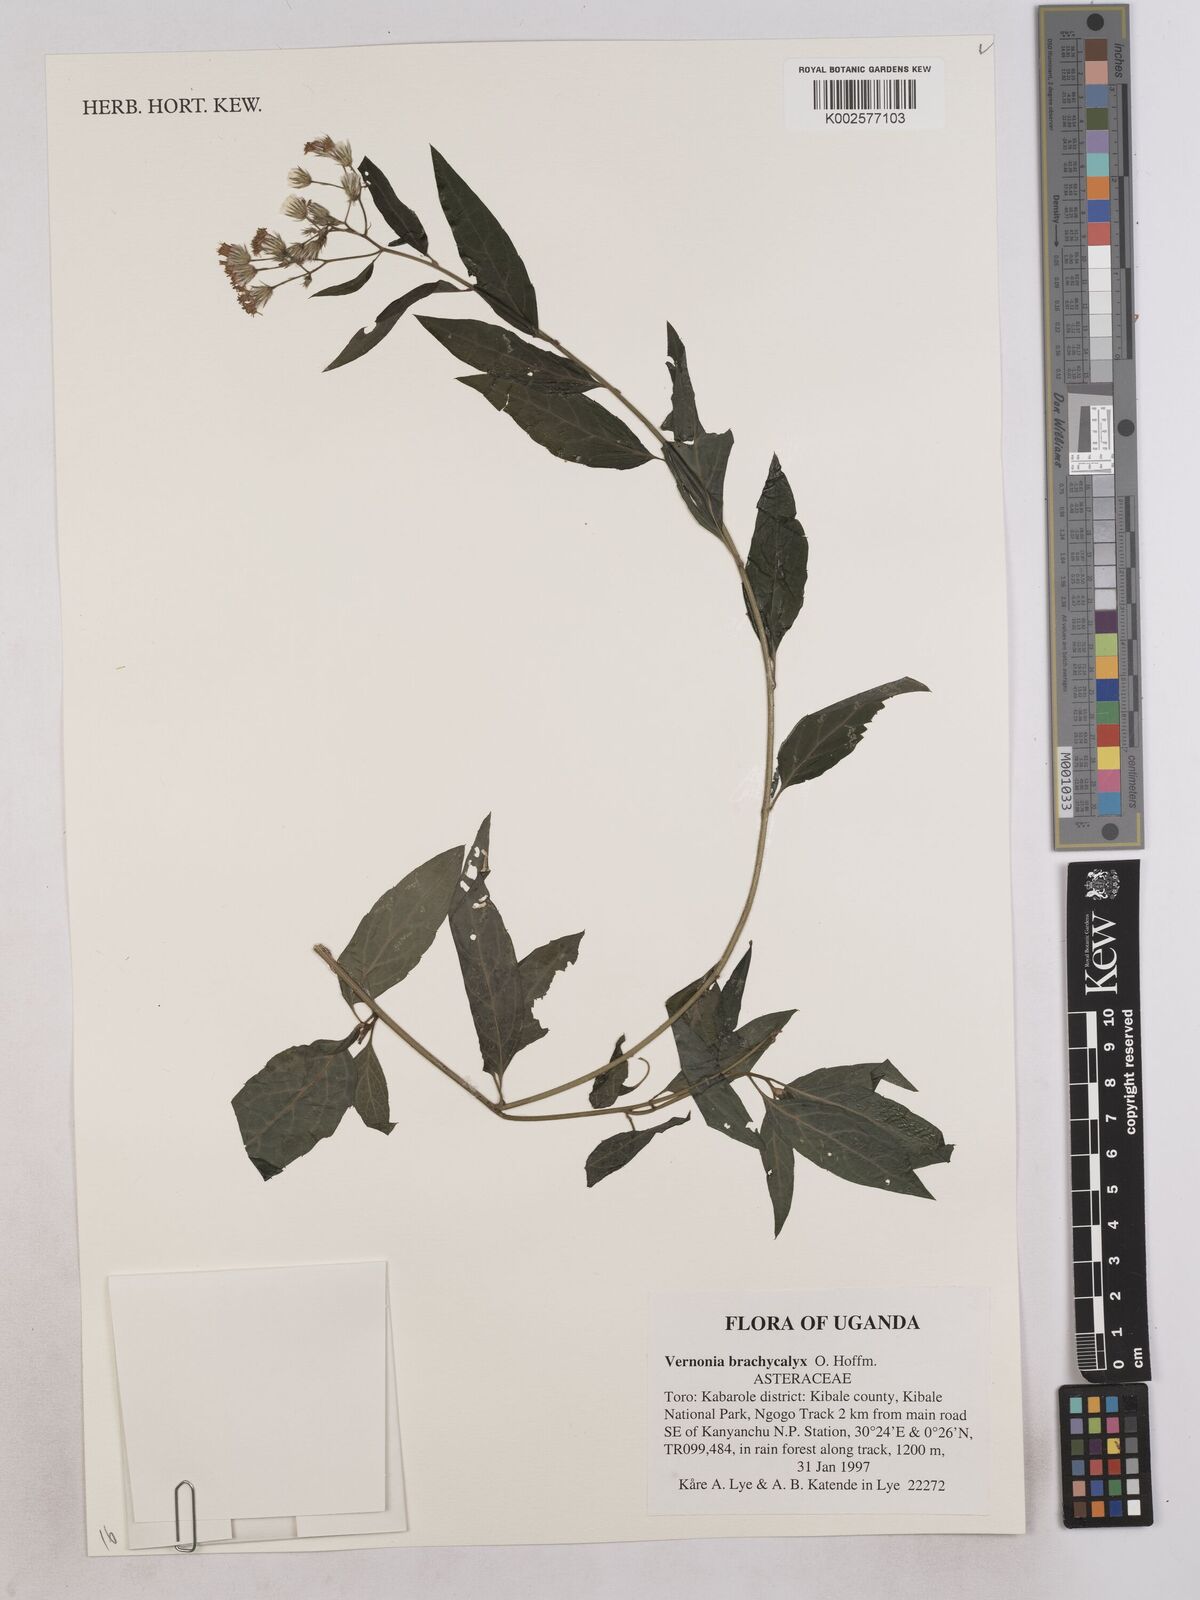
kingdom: Plantae
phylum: Tracheophyta
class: Magnoliopsida
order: Asterales
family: Asteraceae
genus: Hoffmannanthus
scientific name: Hoffmannanthus abbotianus
